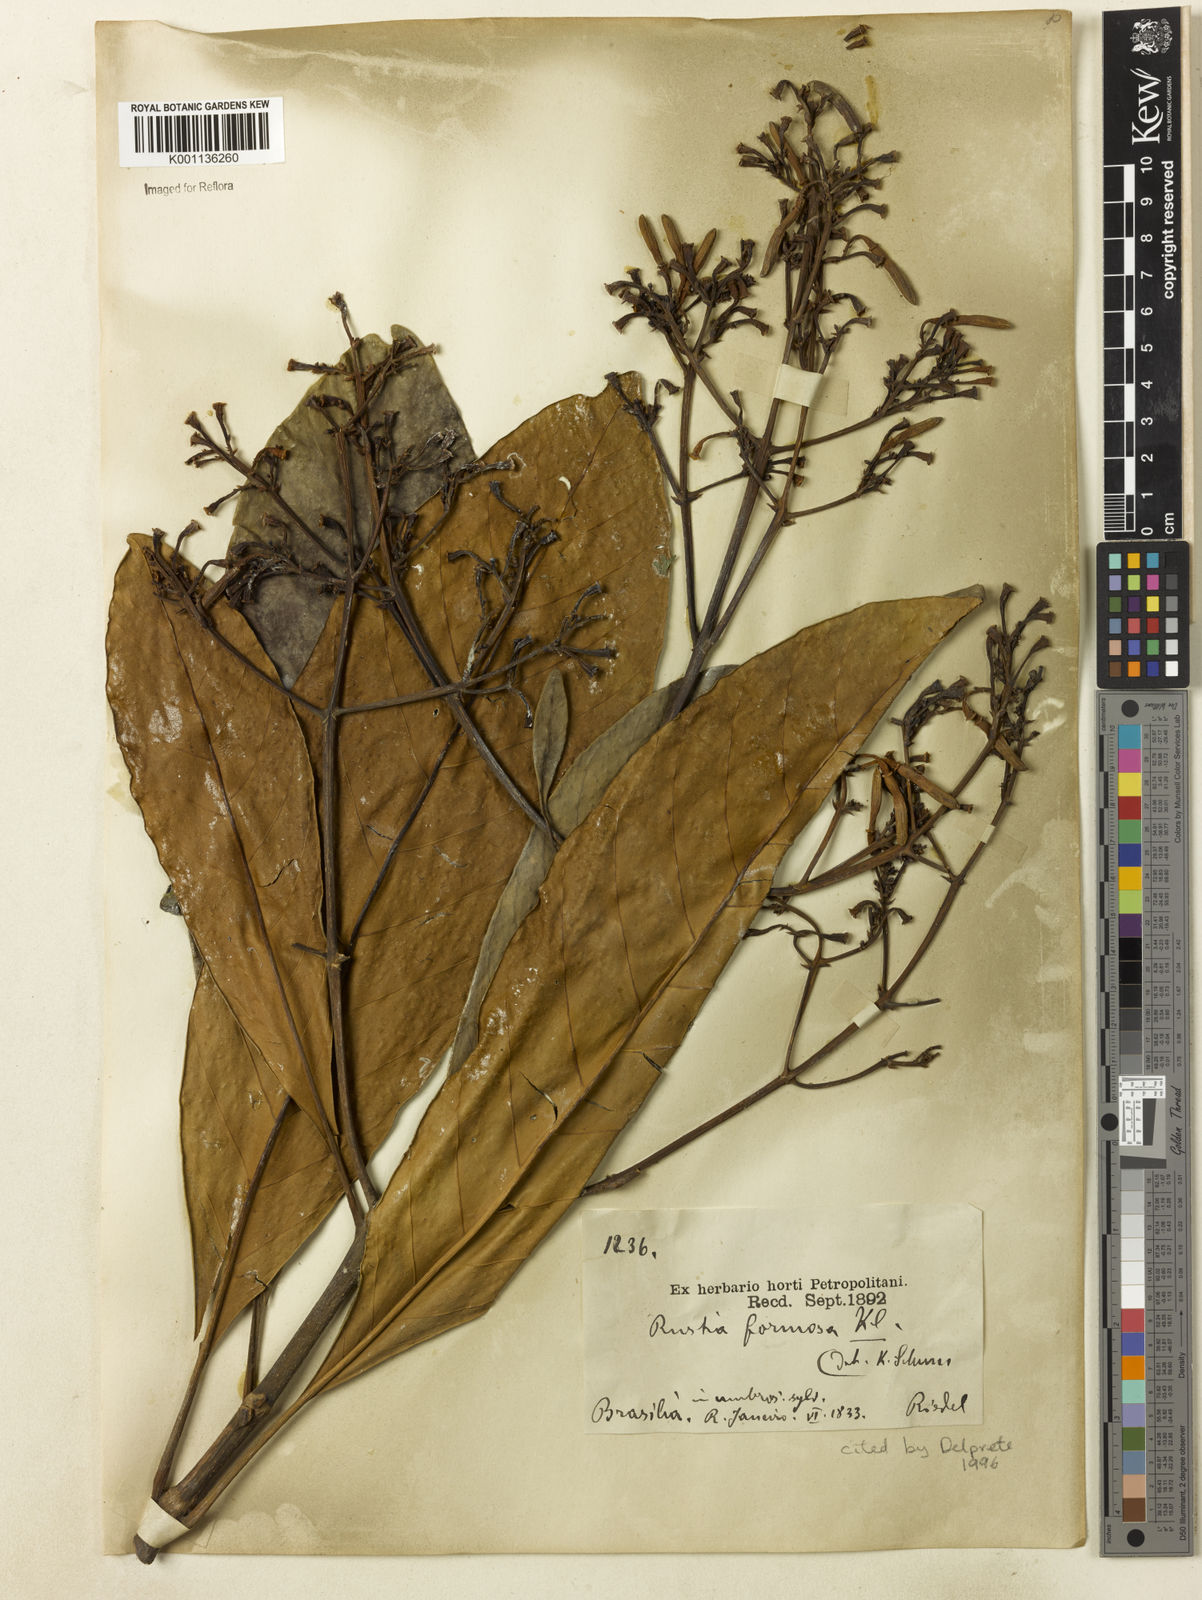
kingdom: Plantae
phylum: Tracheophyta
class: Magnoliopsida
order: Gentianales
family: Rubiaceae
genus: Rustia
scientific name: Rustia formosa
